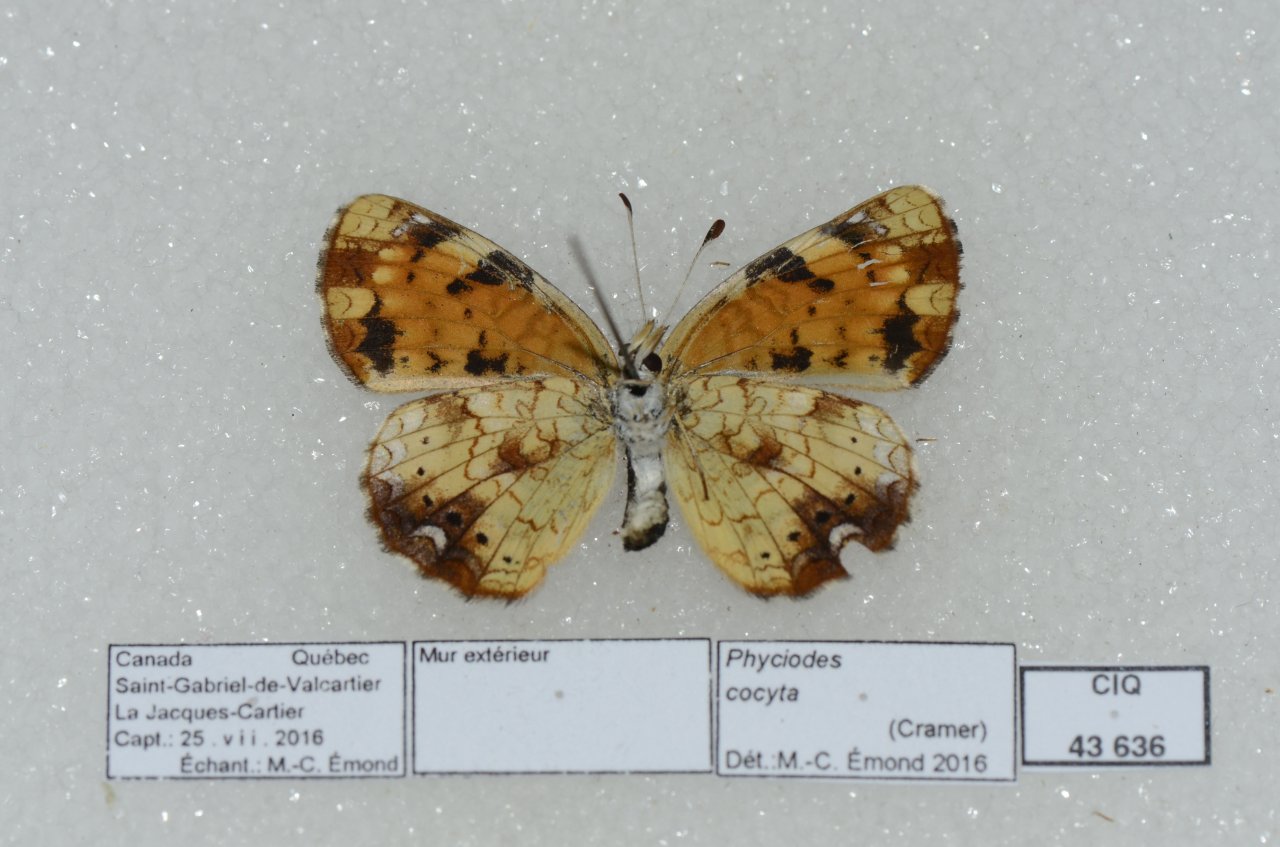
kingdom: Animalia
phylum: Arthropoda
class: Insecta
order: Lepidoptera
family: Nymphalidae
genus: Phyciodes
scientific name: Phyciodes tharos
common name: Northern Crescent
